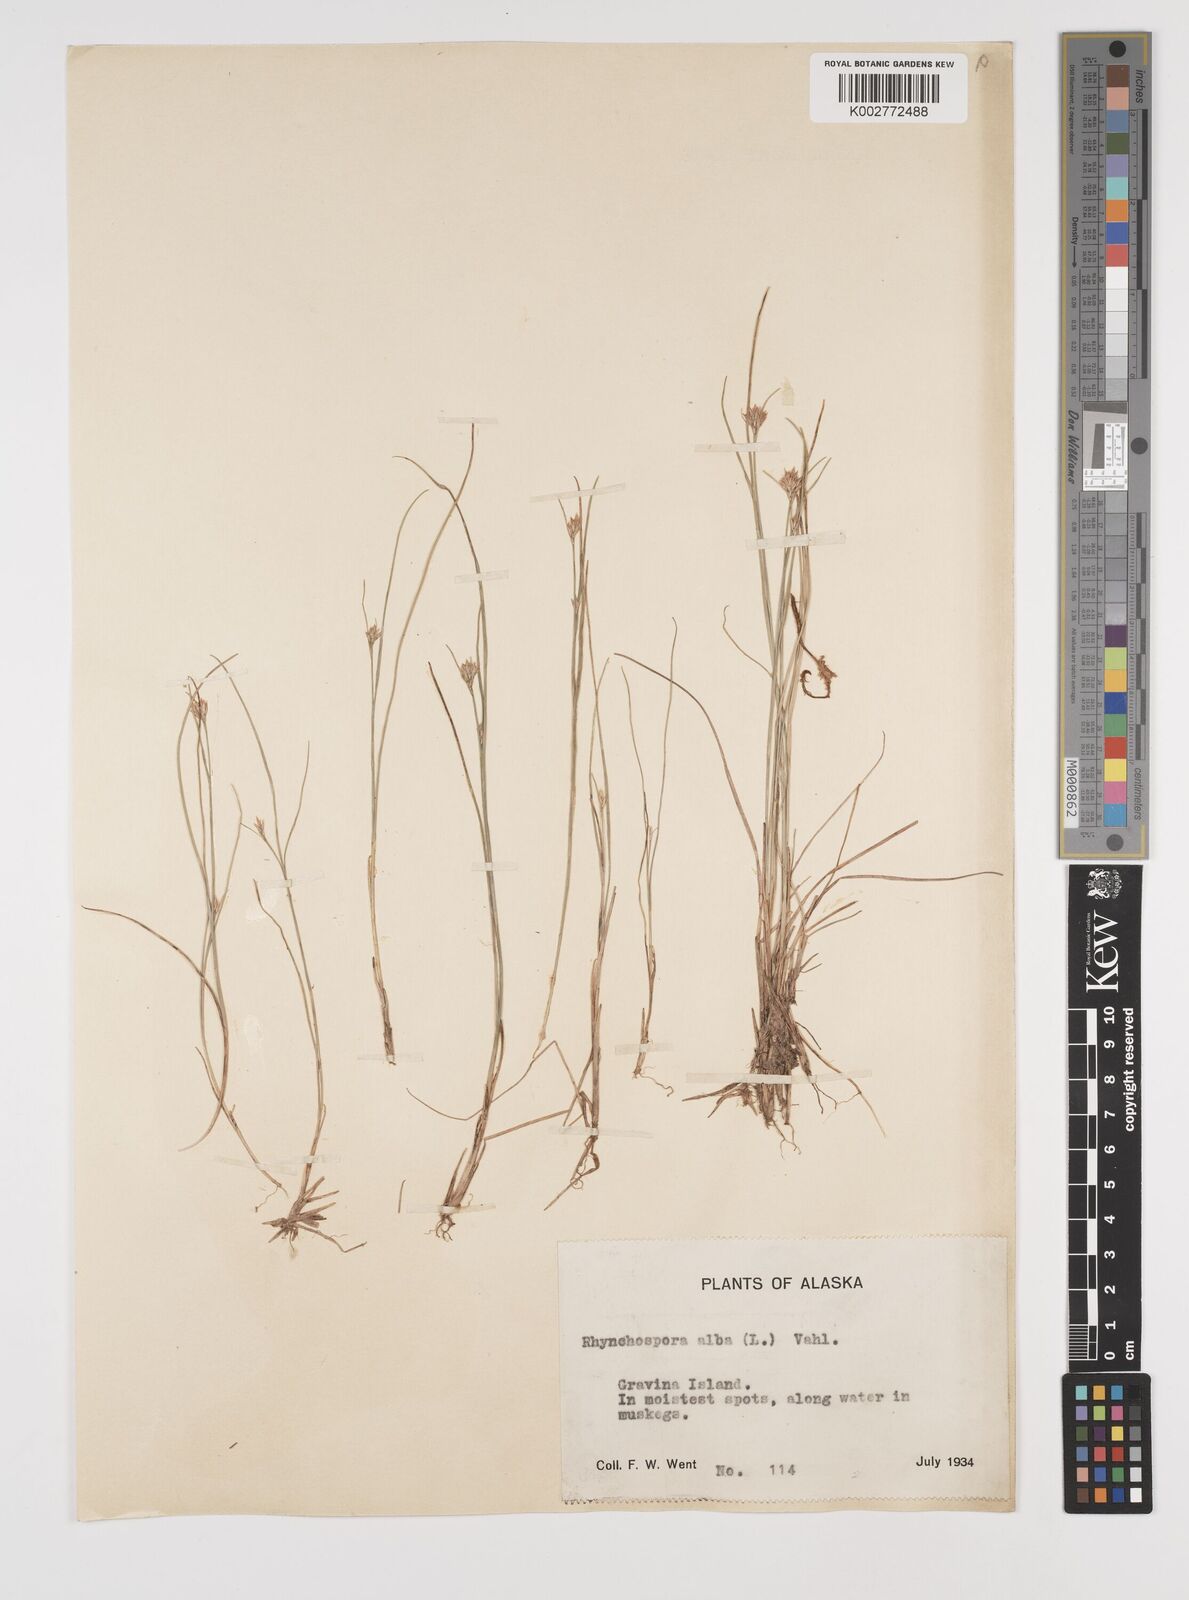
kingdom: Plantae
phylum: Tracheophyta
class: Liliopsida
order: Poales
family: Cyperaceae
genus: Rhynchospora
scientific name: Rhynchospora alba
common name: White beak-sedge
